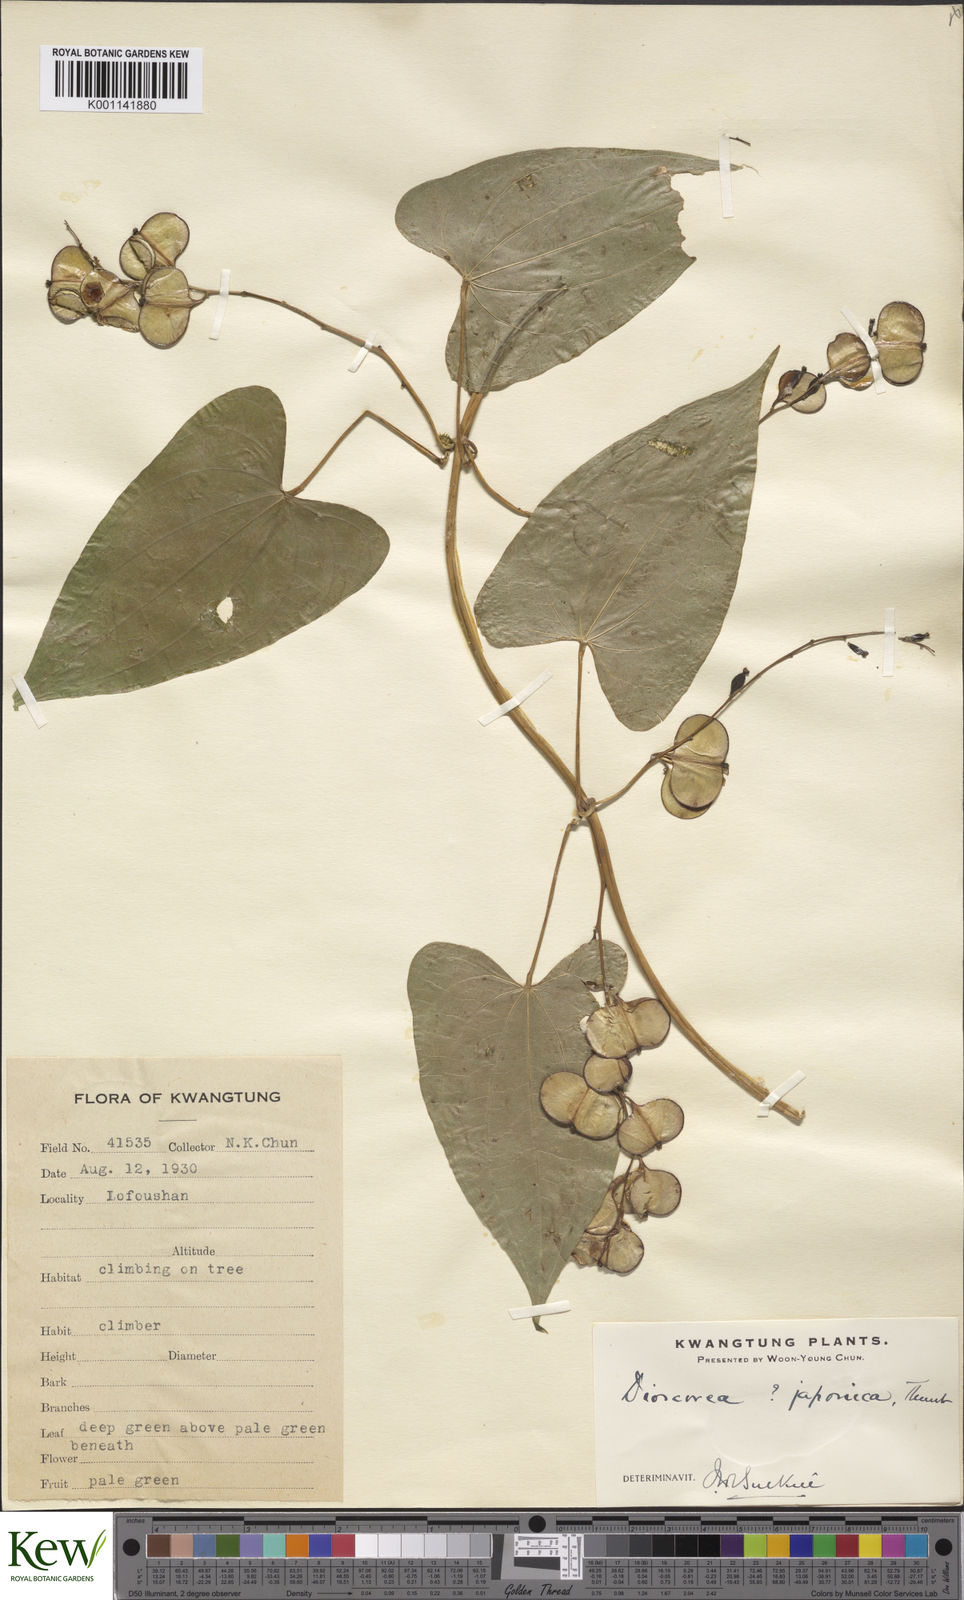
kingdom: Plantae
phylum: Tracheophyta
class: Liliopsida
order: Dioscoreales
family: Dioscoreaceae
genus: Dioscorea
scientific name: Dioscorea japonica
